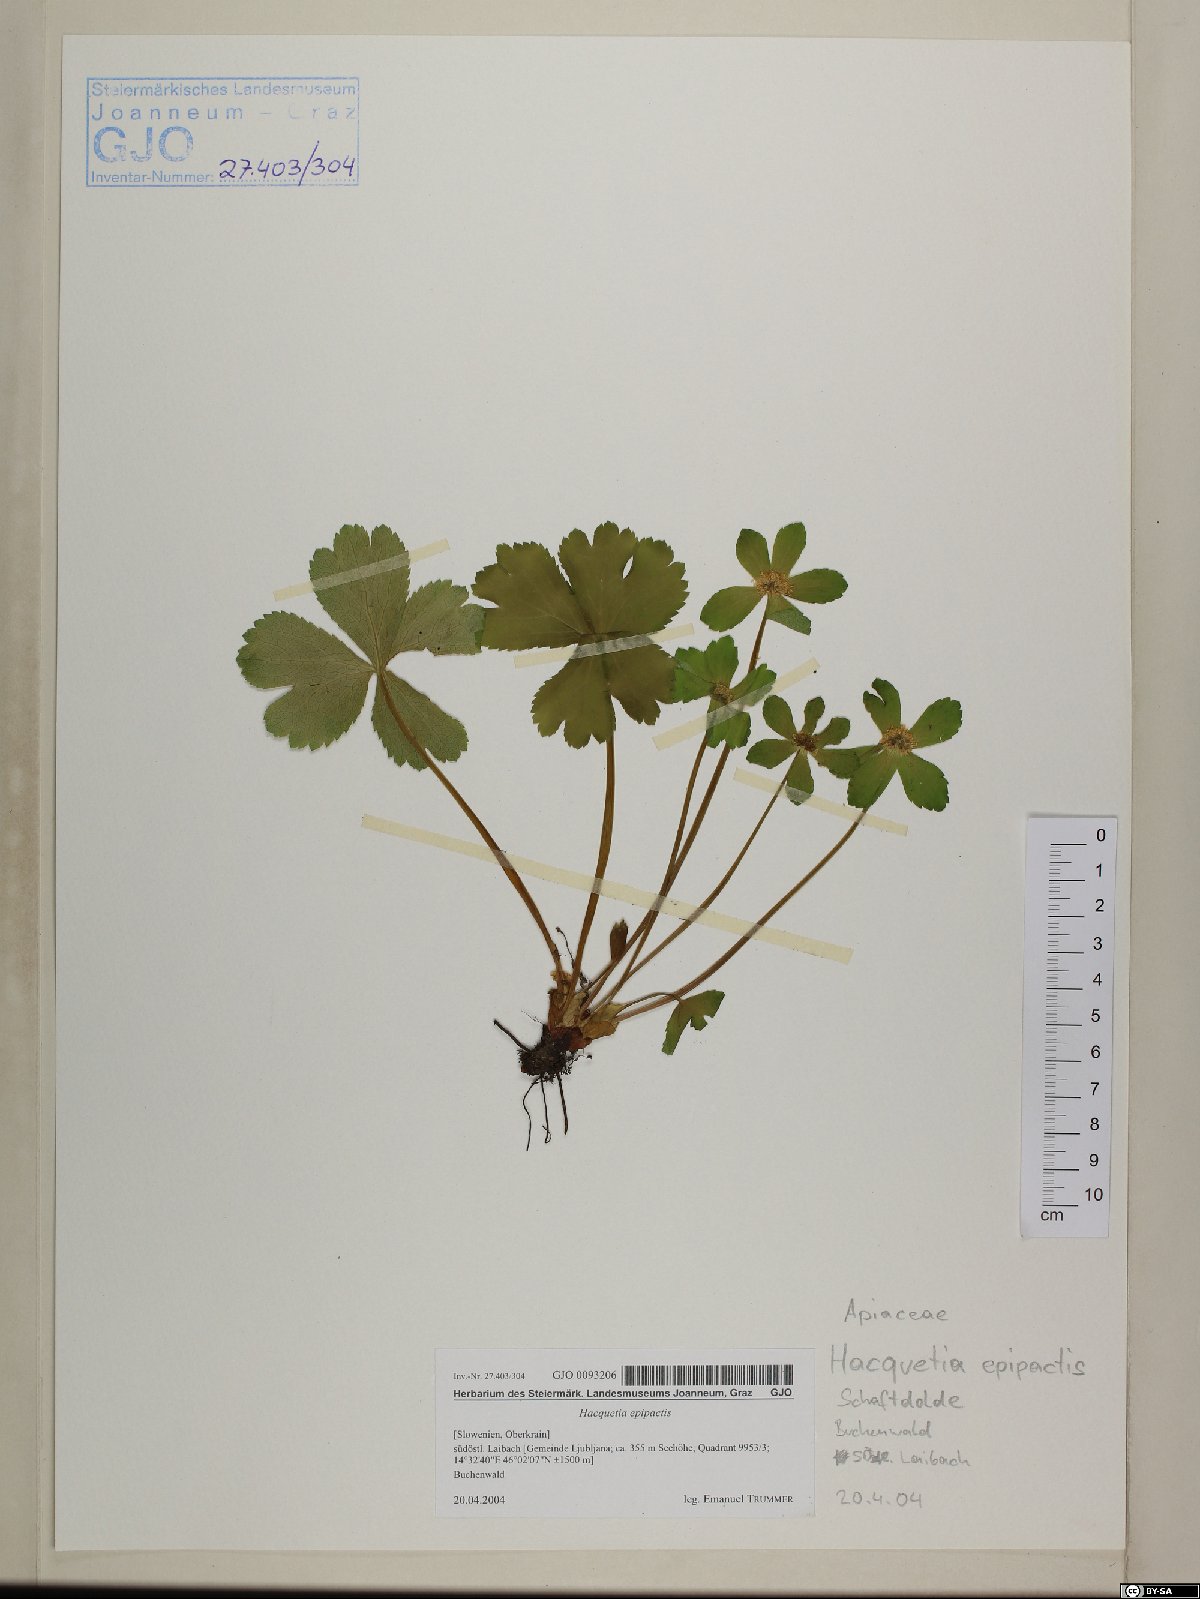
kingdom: Plantae
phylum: Tracheophyta
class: Magnoliopsida
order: Apiales
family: Apiaceae
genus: Sanicula
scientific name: Sanicula epipactis
